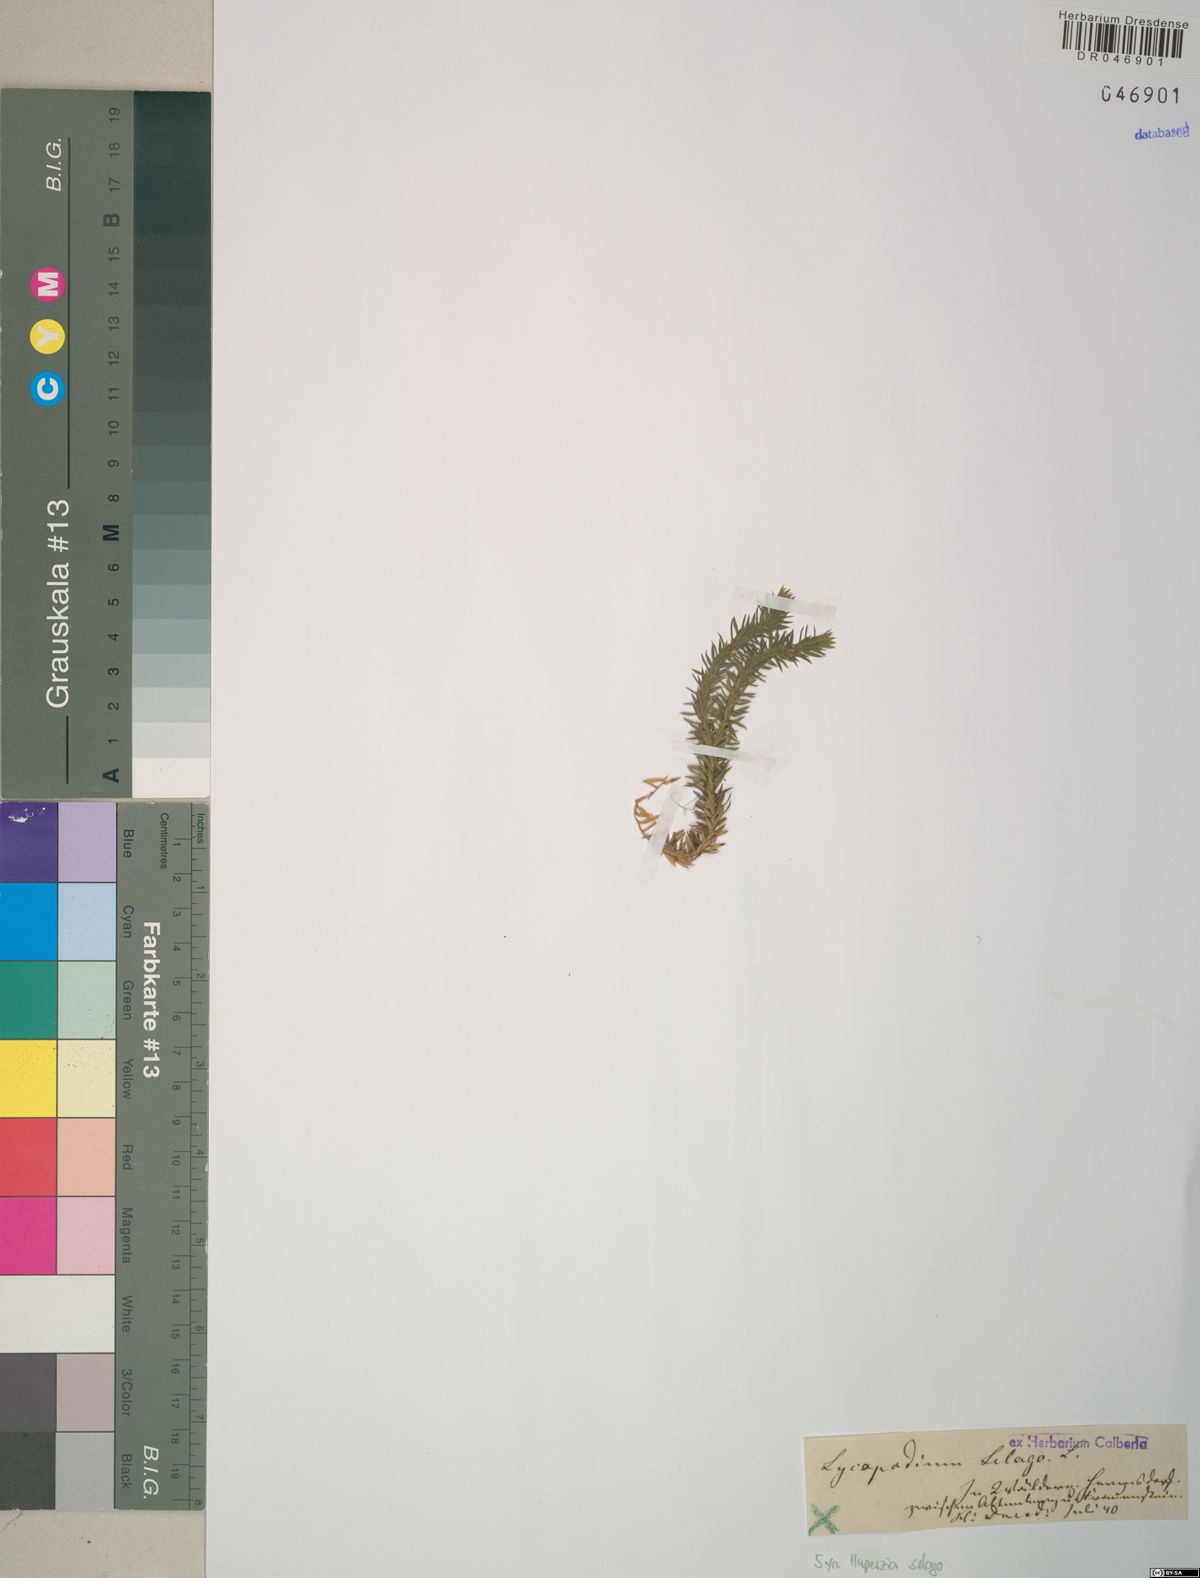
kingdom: Plantae
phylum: Tracheophyta
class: Lycopodiopsida
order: Lycopodiales
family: Lycopodiaceae
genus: Huperzia
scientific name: Huperzia selago
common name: Northern firmoss
